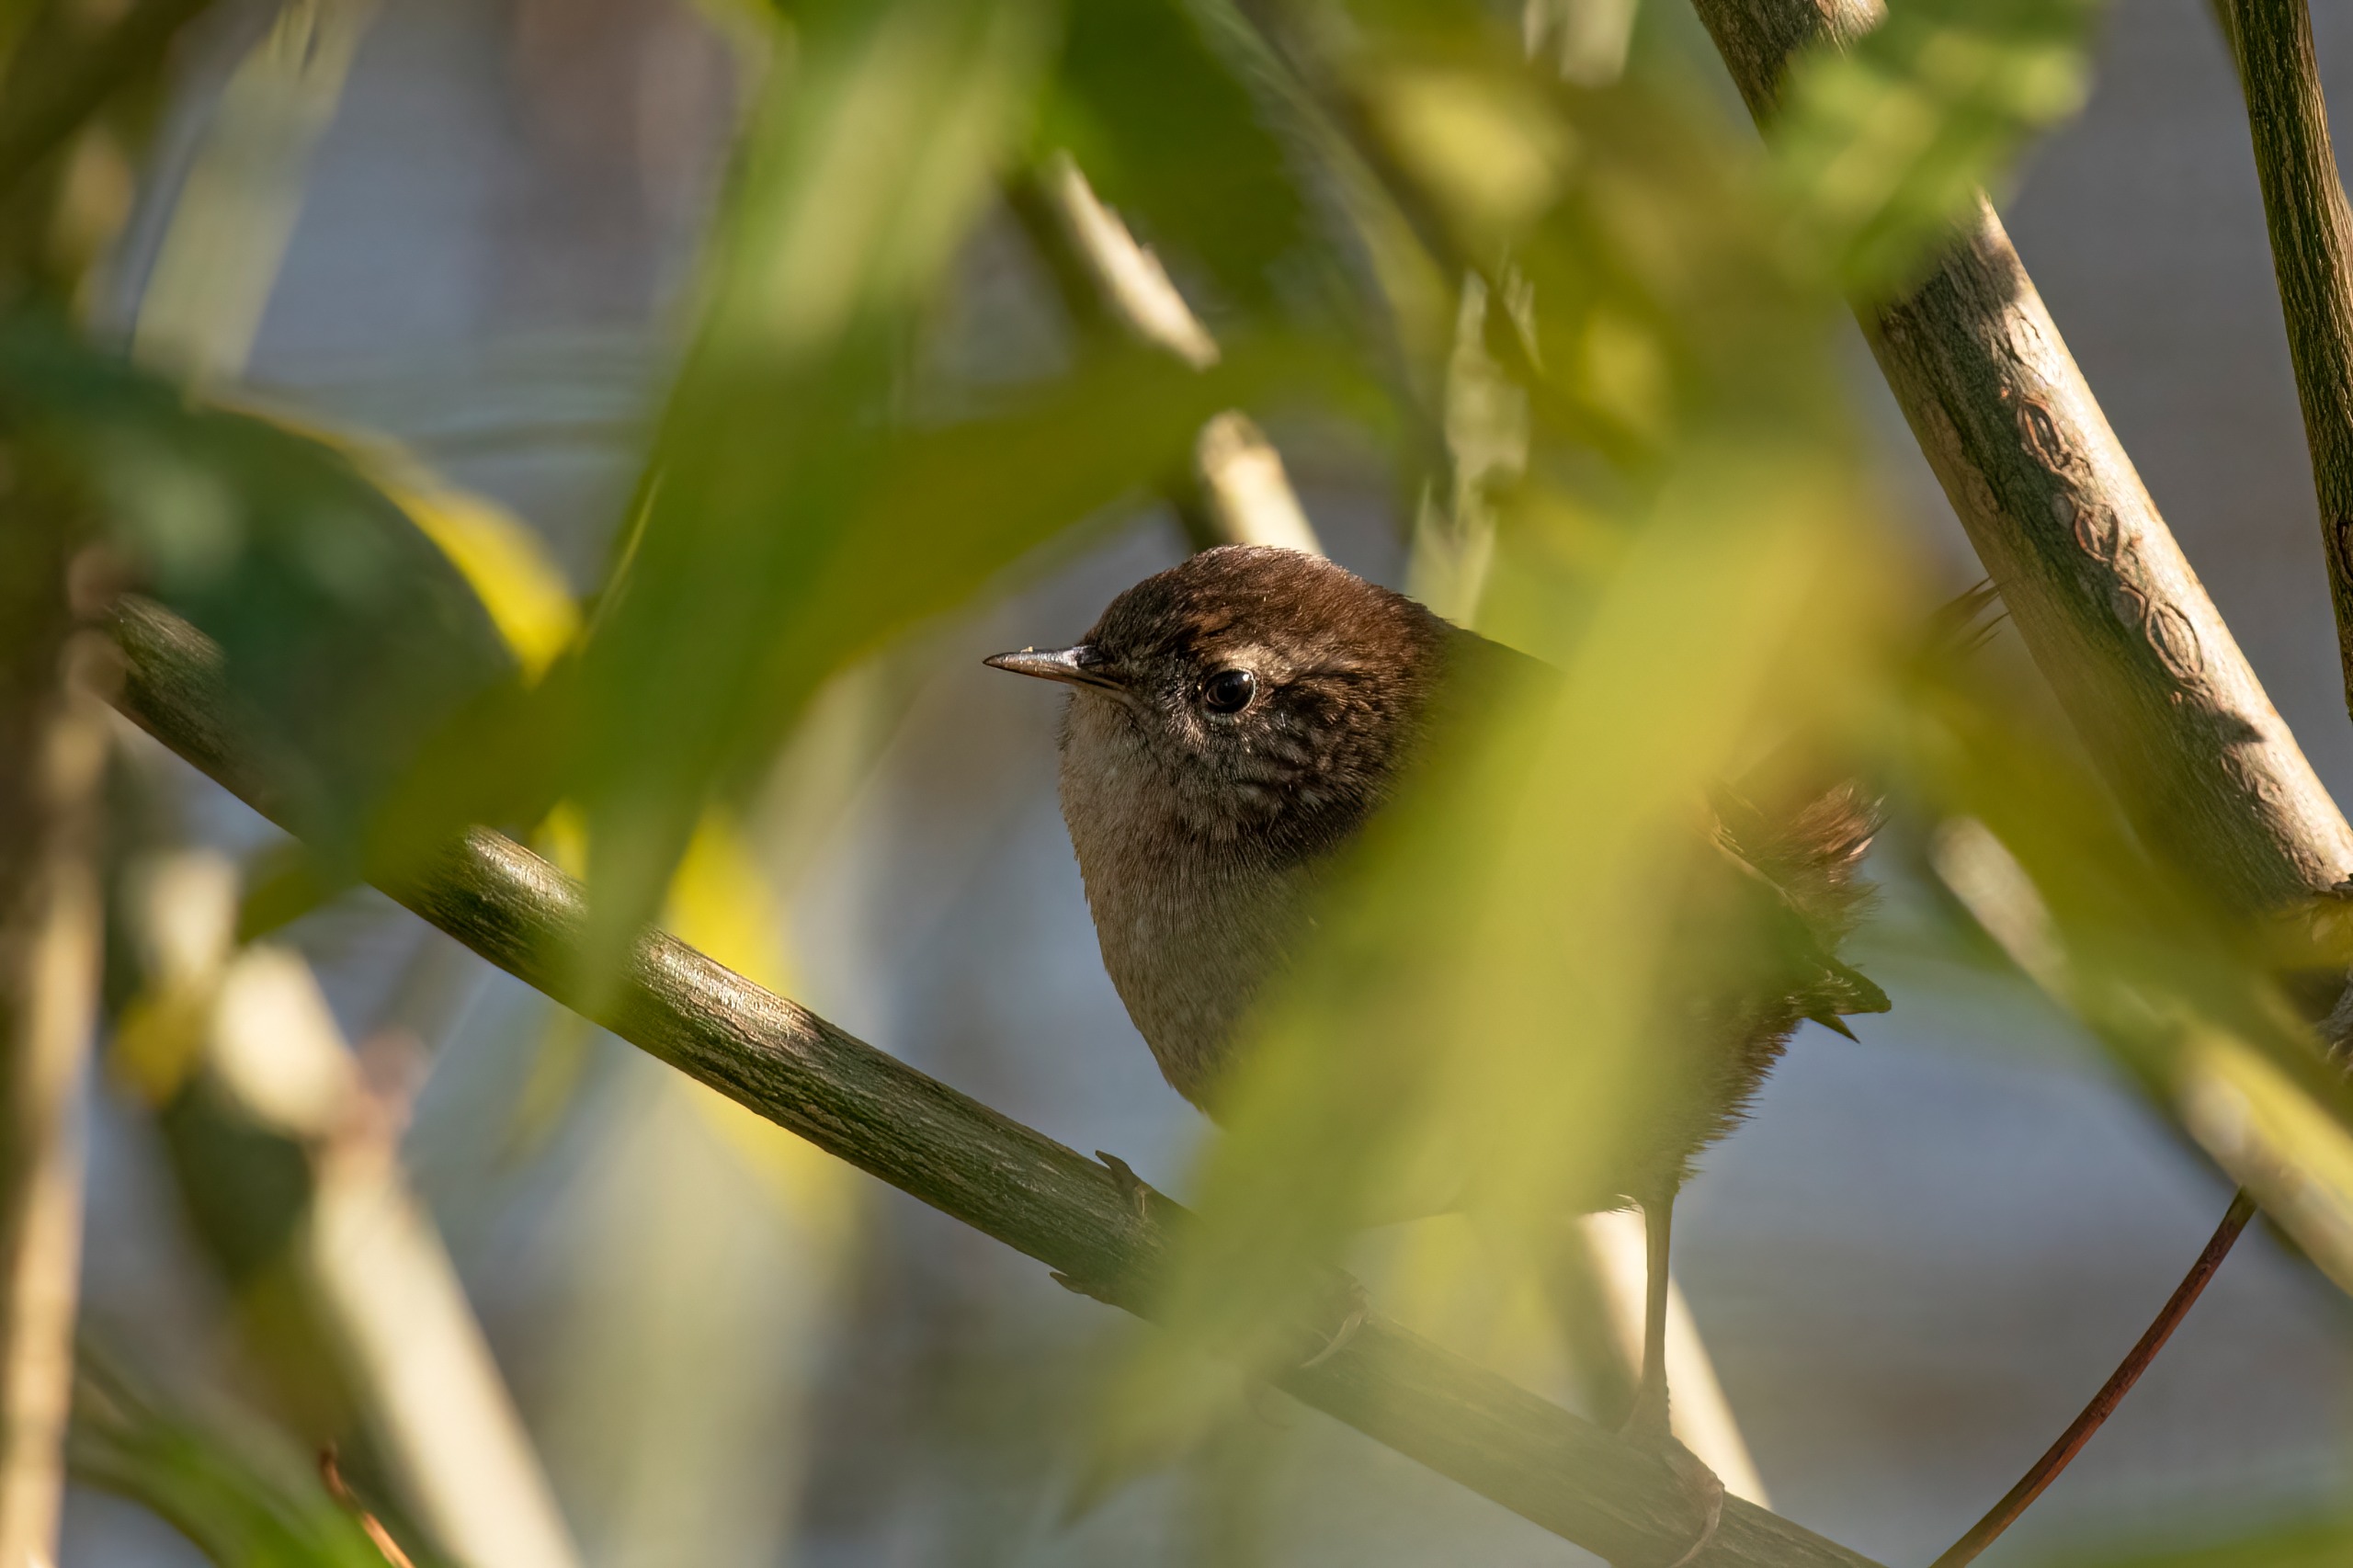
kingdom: Animalia
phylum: Chordata
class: Aves
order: Passeriformes
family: Troglodytidae
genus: Troglodytes
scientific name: Troglodytes troglodytes
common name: Gærdesmutte
